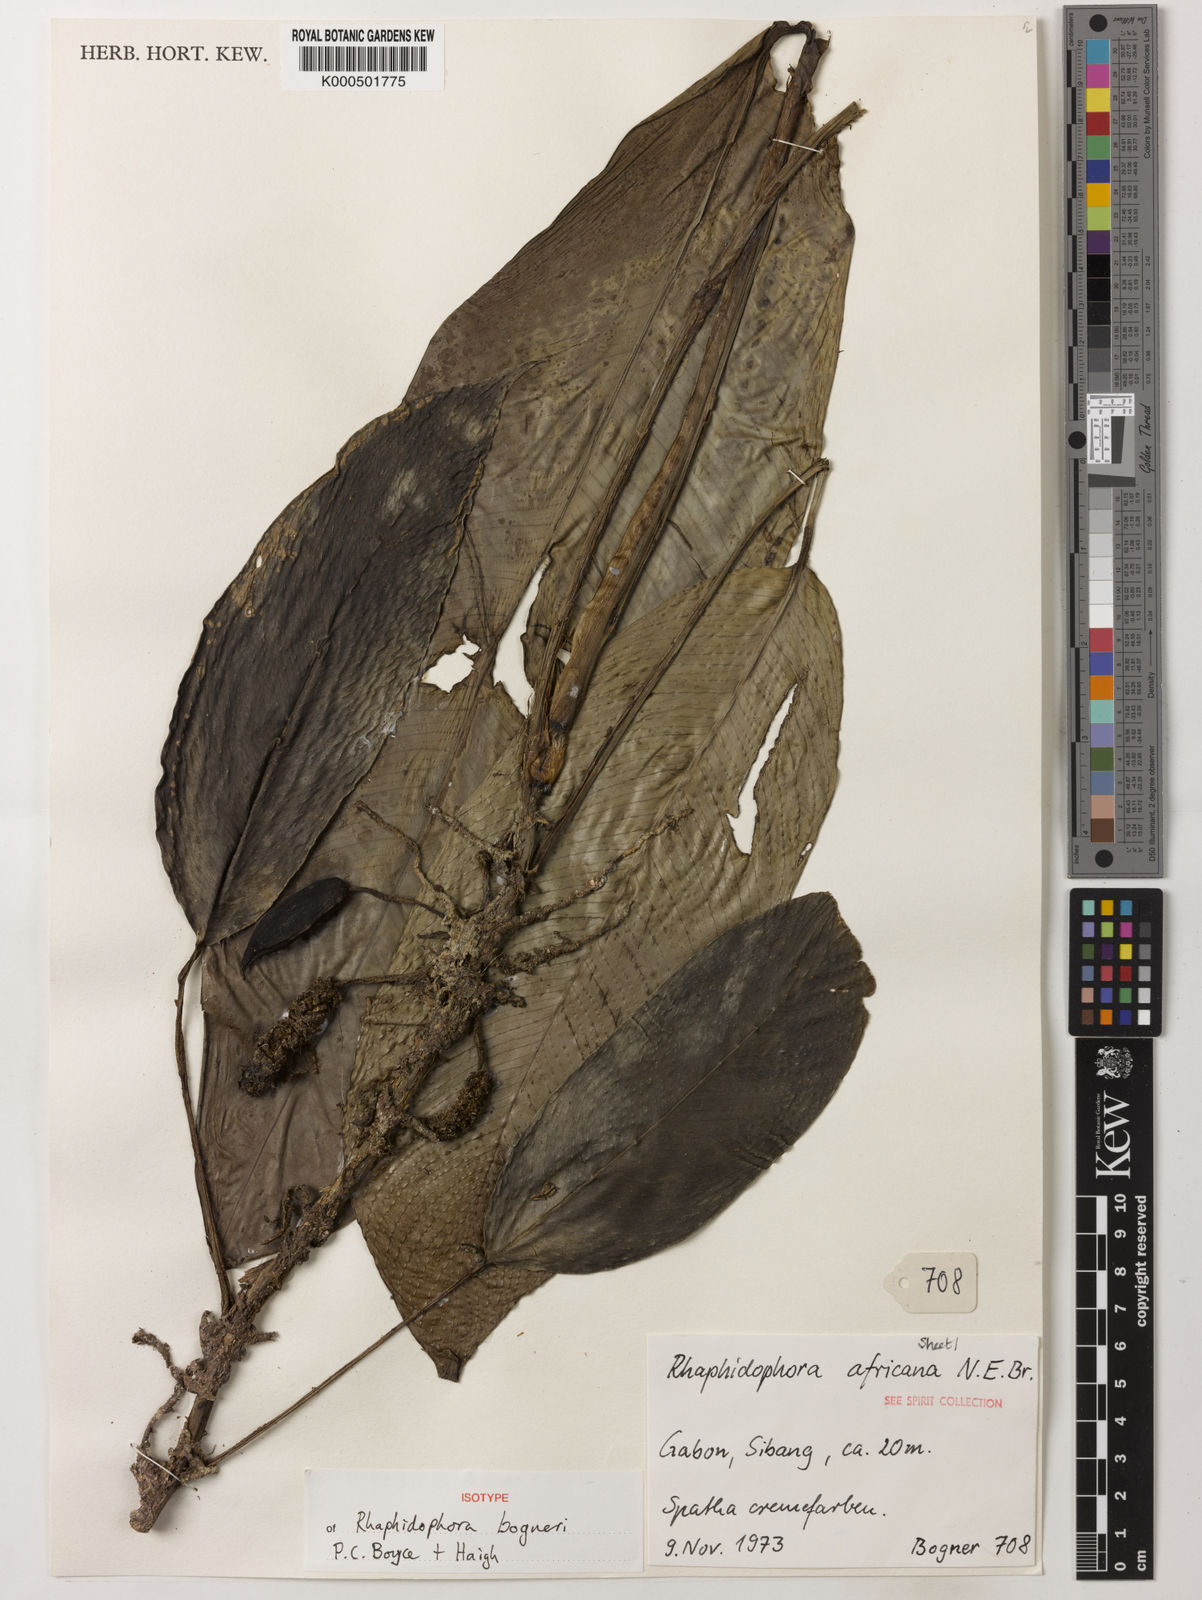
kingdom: Plantae
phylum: Tracheophyta
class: Liliopsida
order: Alismatales
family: Araceae
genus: Rhaphidophora
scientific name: Rhaphidophora bogneri
